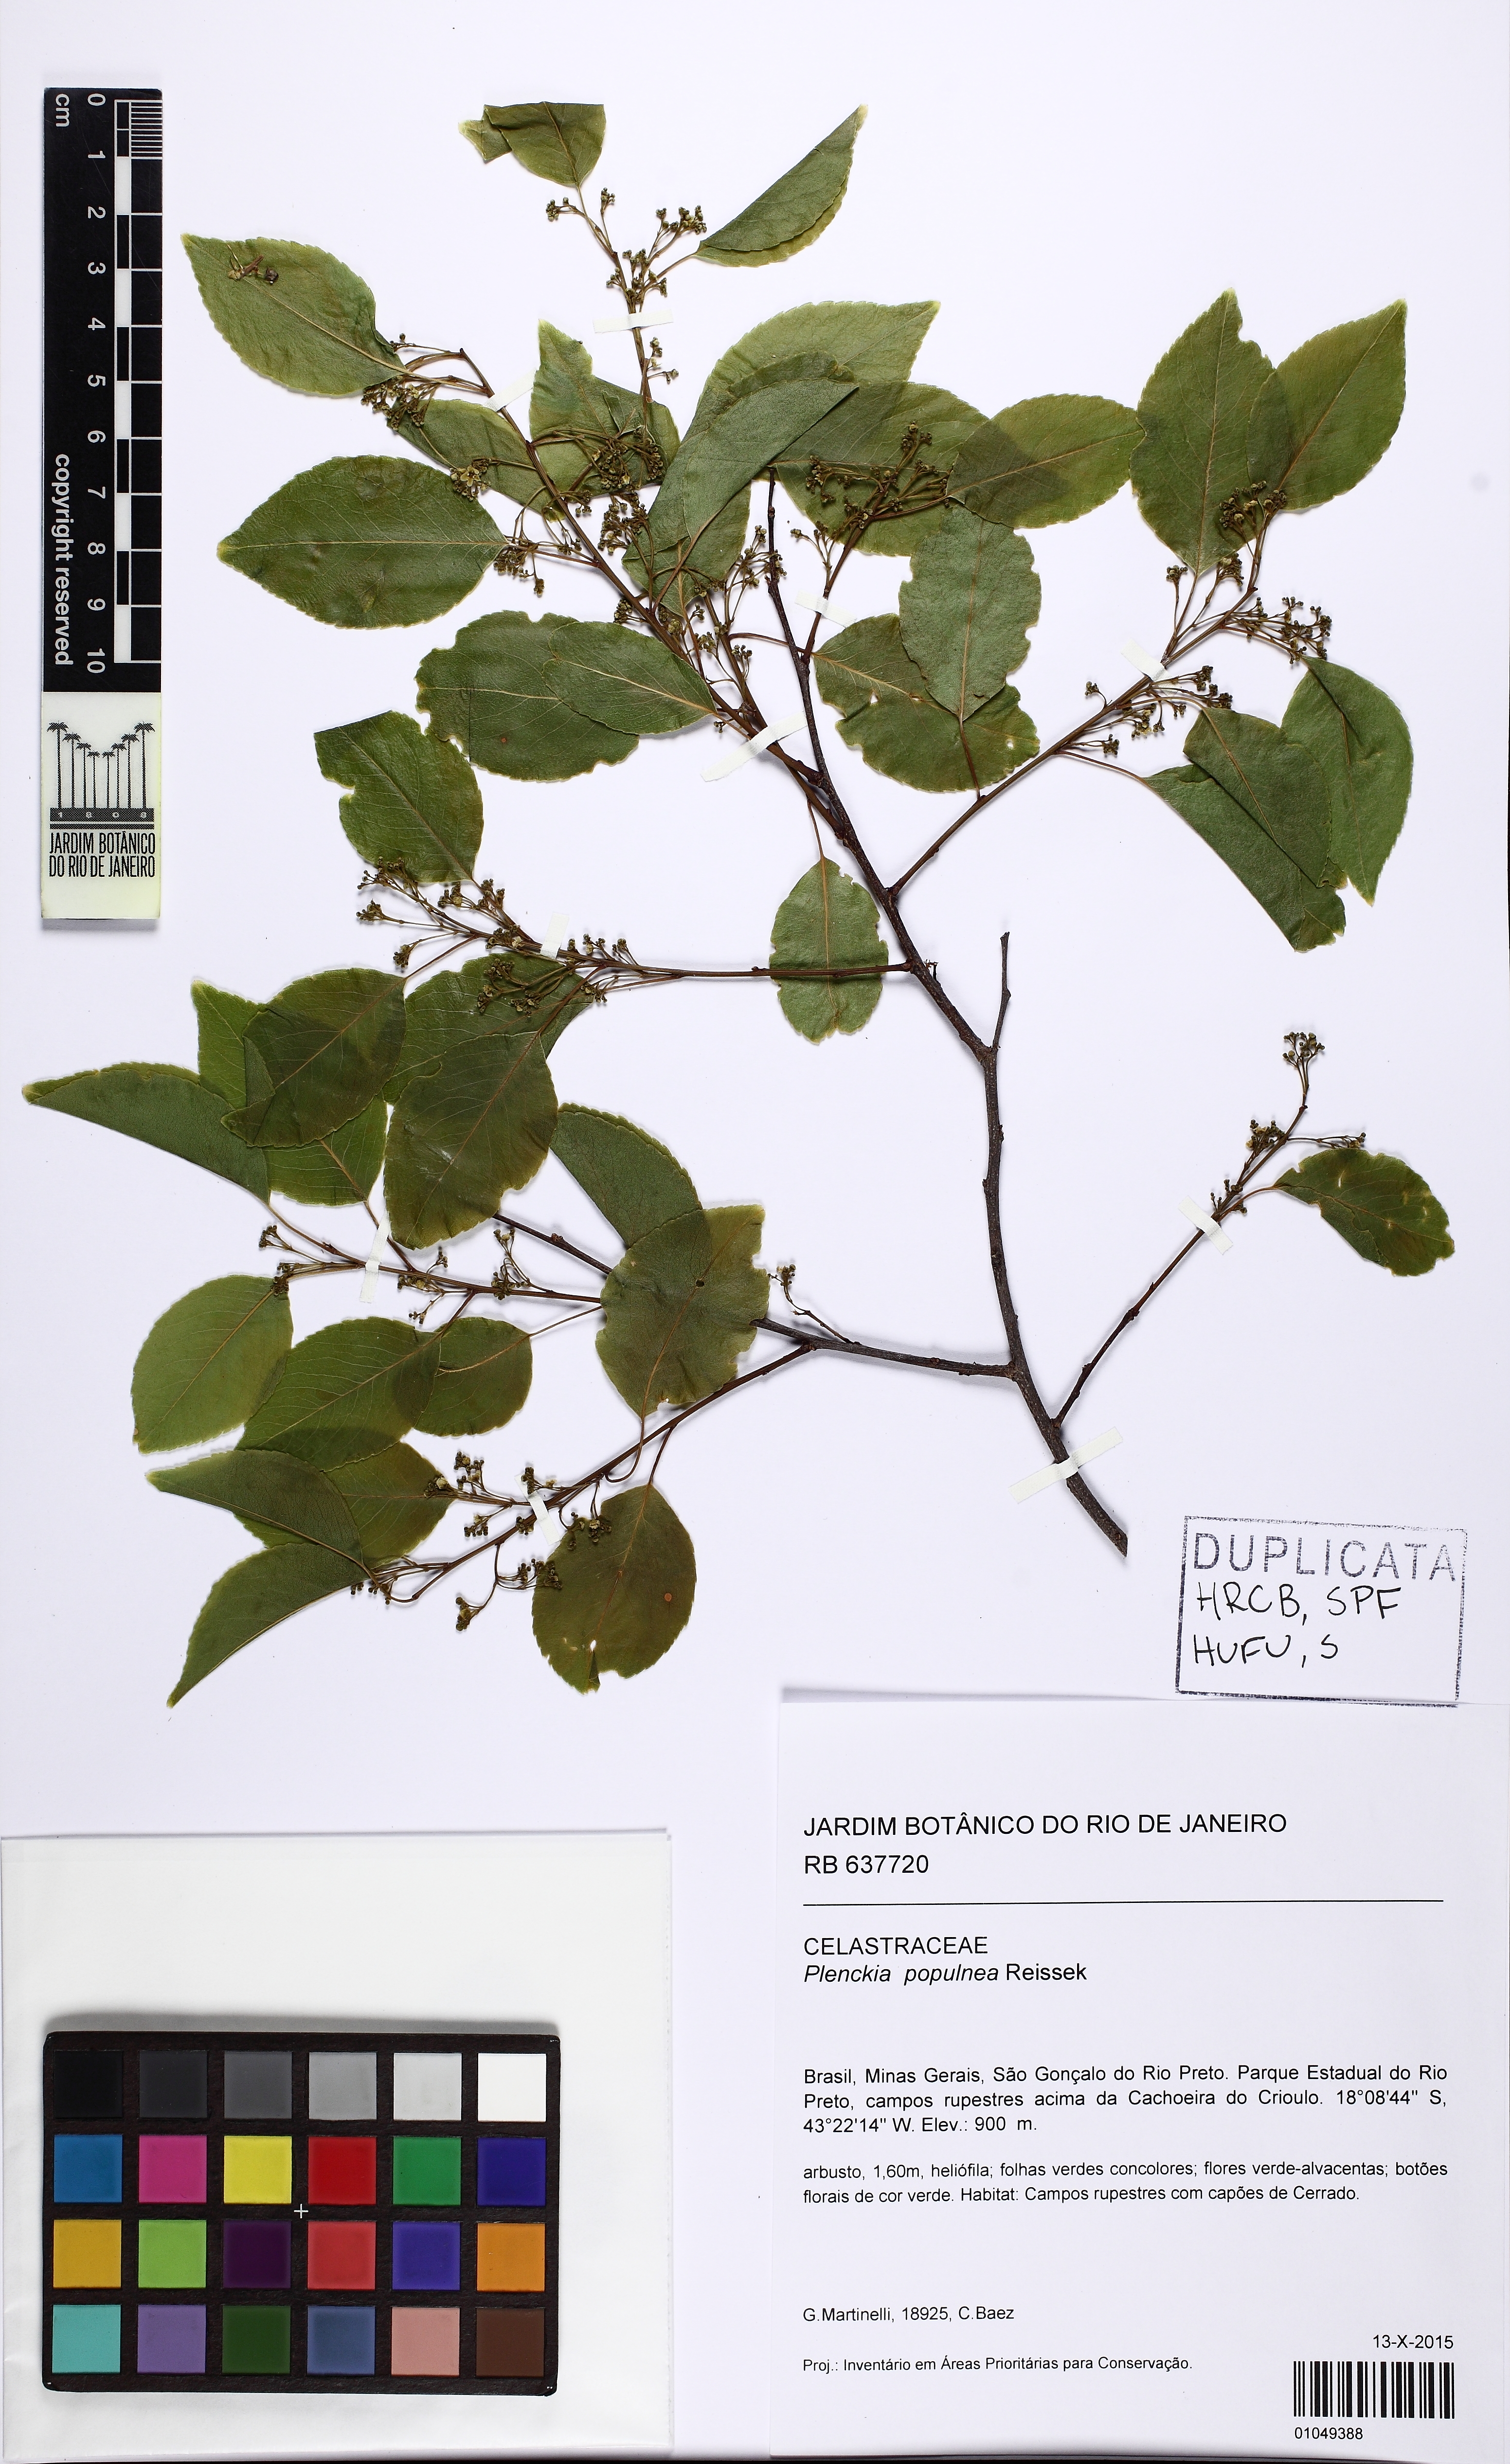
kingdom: Plantae
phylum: Tracheophyta
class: Magnoliopsida
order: Celastrales
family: Celastraceae
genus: Plenckia
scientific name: Plenckia populnea
